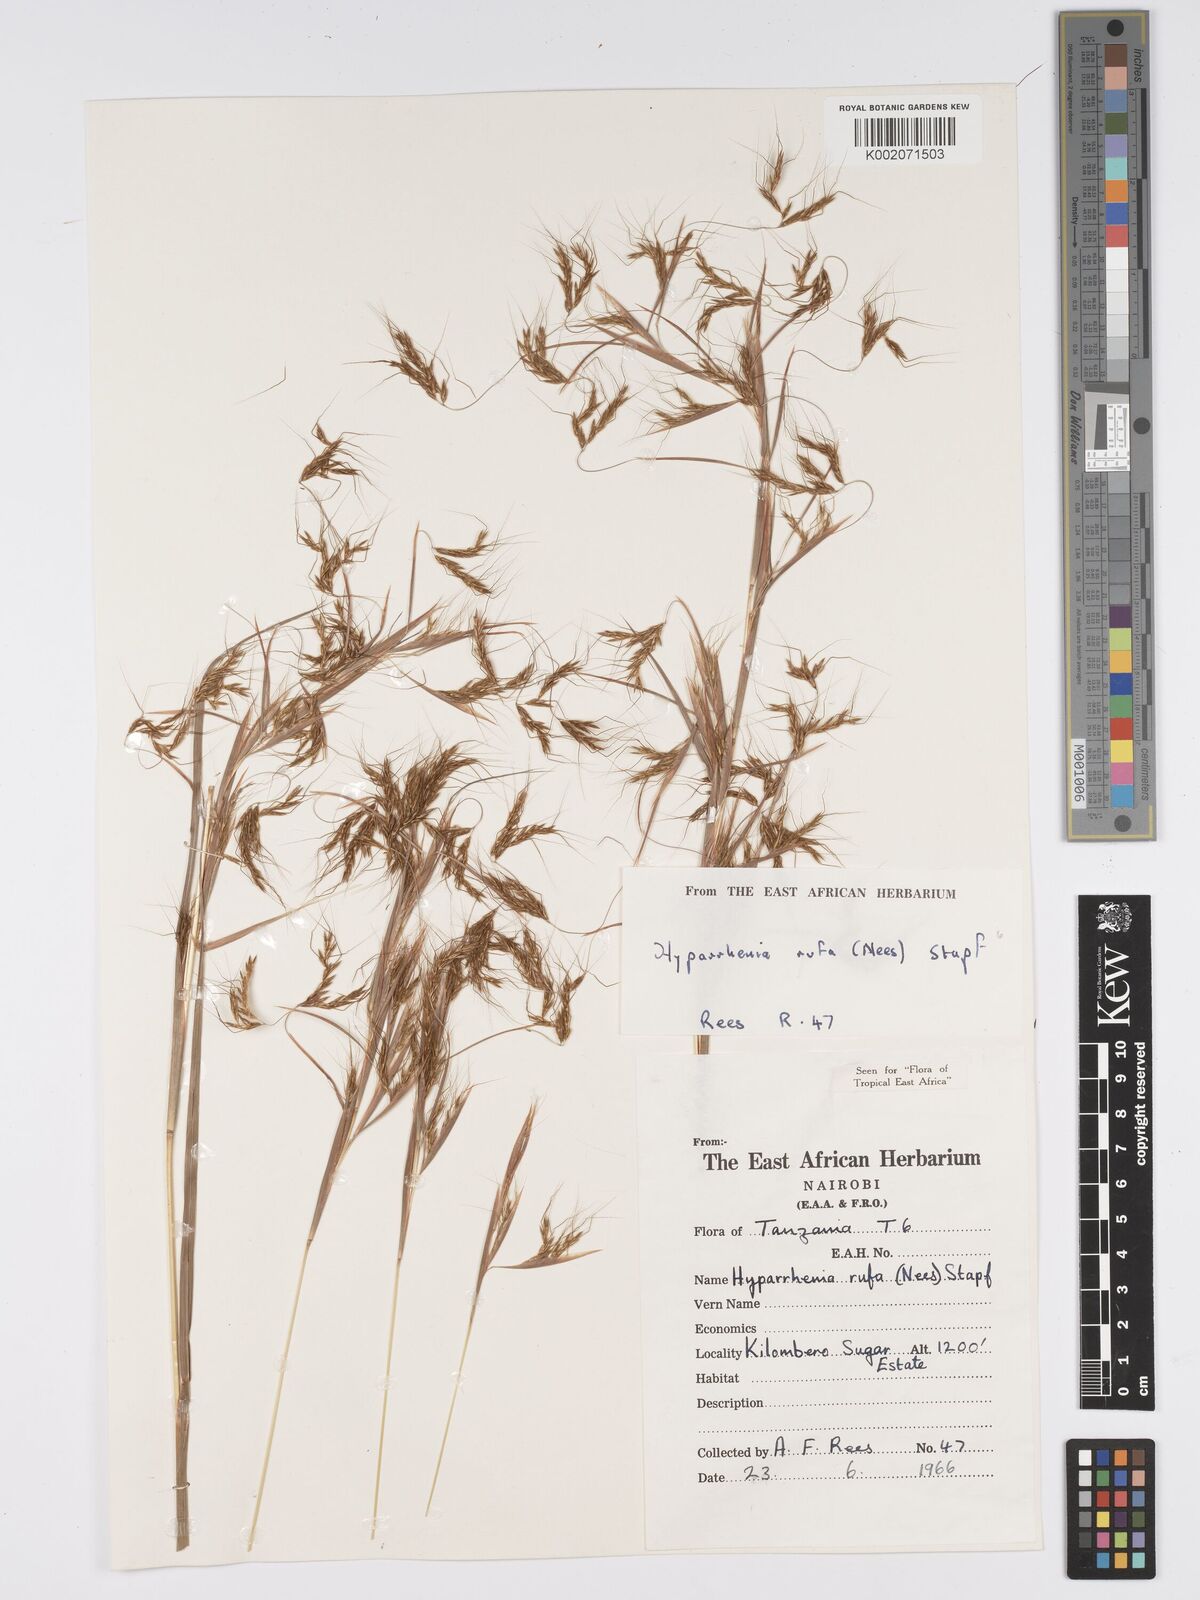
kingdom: Plantae
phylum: Tracheophyta
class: Liliopsida
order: Poales
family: Poaceae
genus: Hyparrhenia
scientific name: Hyparrhenia rufa
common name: Jaraguagrass
